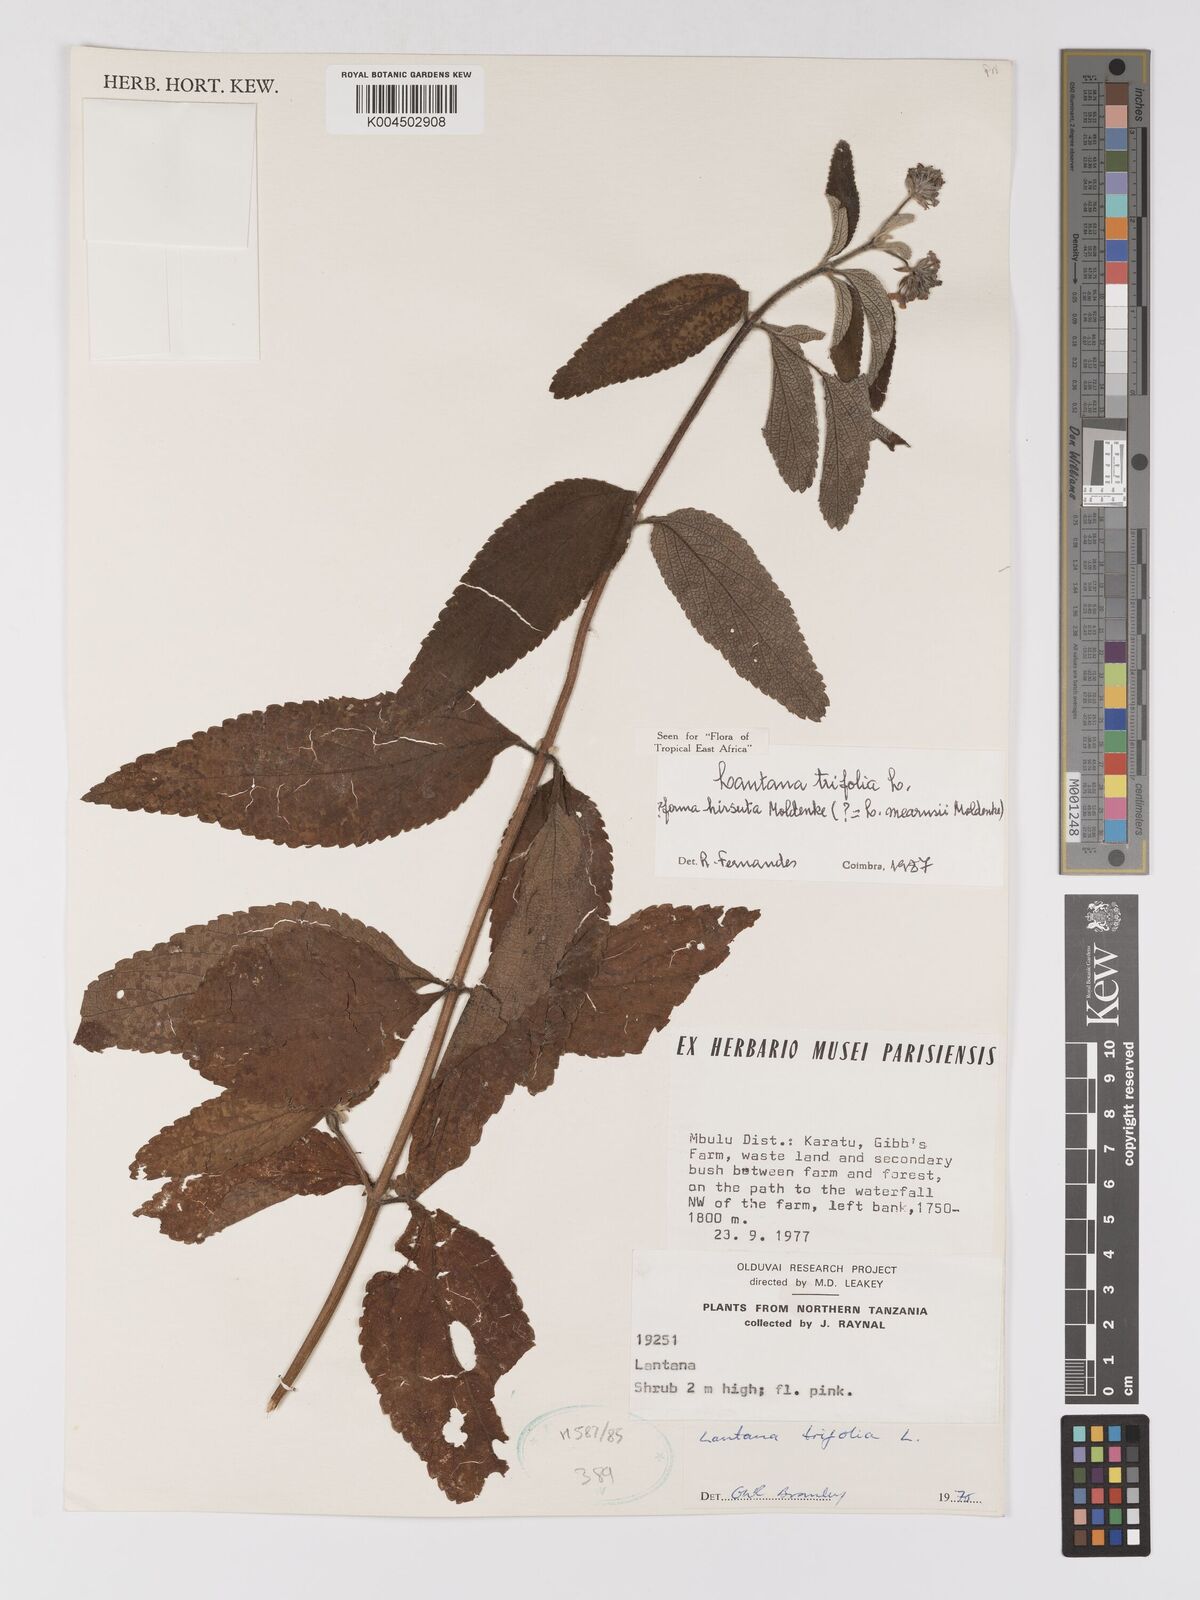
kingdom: Plantae
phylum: Tracheophyta
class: Magnoliopsida
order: Lamiales
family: Verbenaceae
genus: Lantana
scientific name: Lantana trifolia
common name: Sweet-sage
